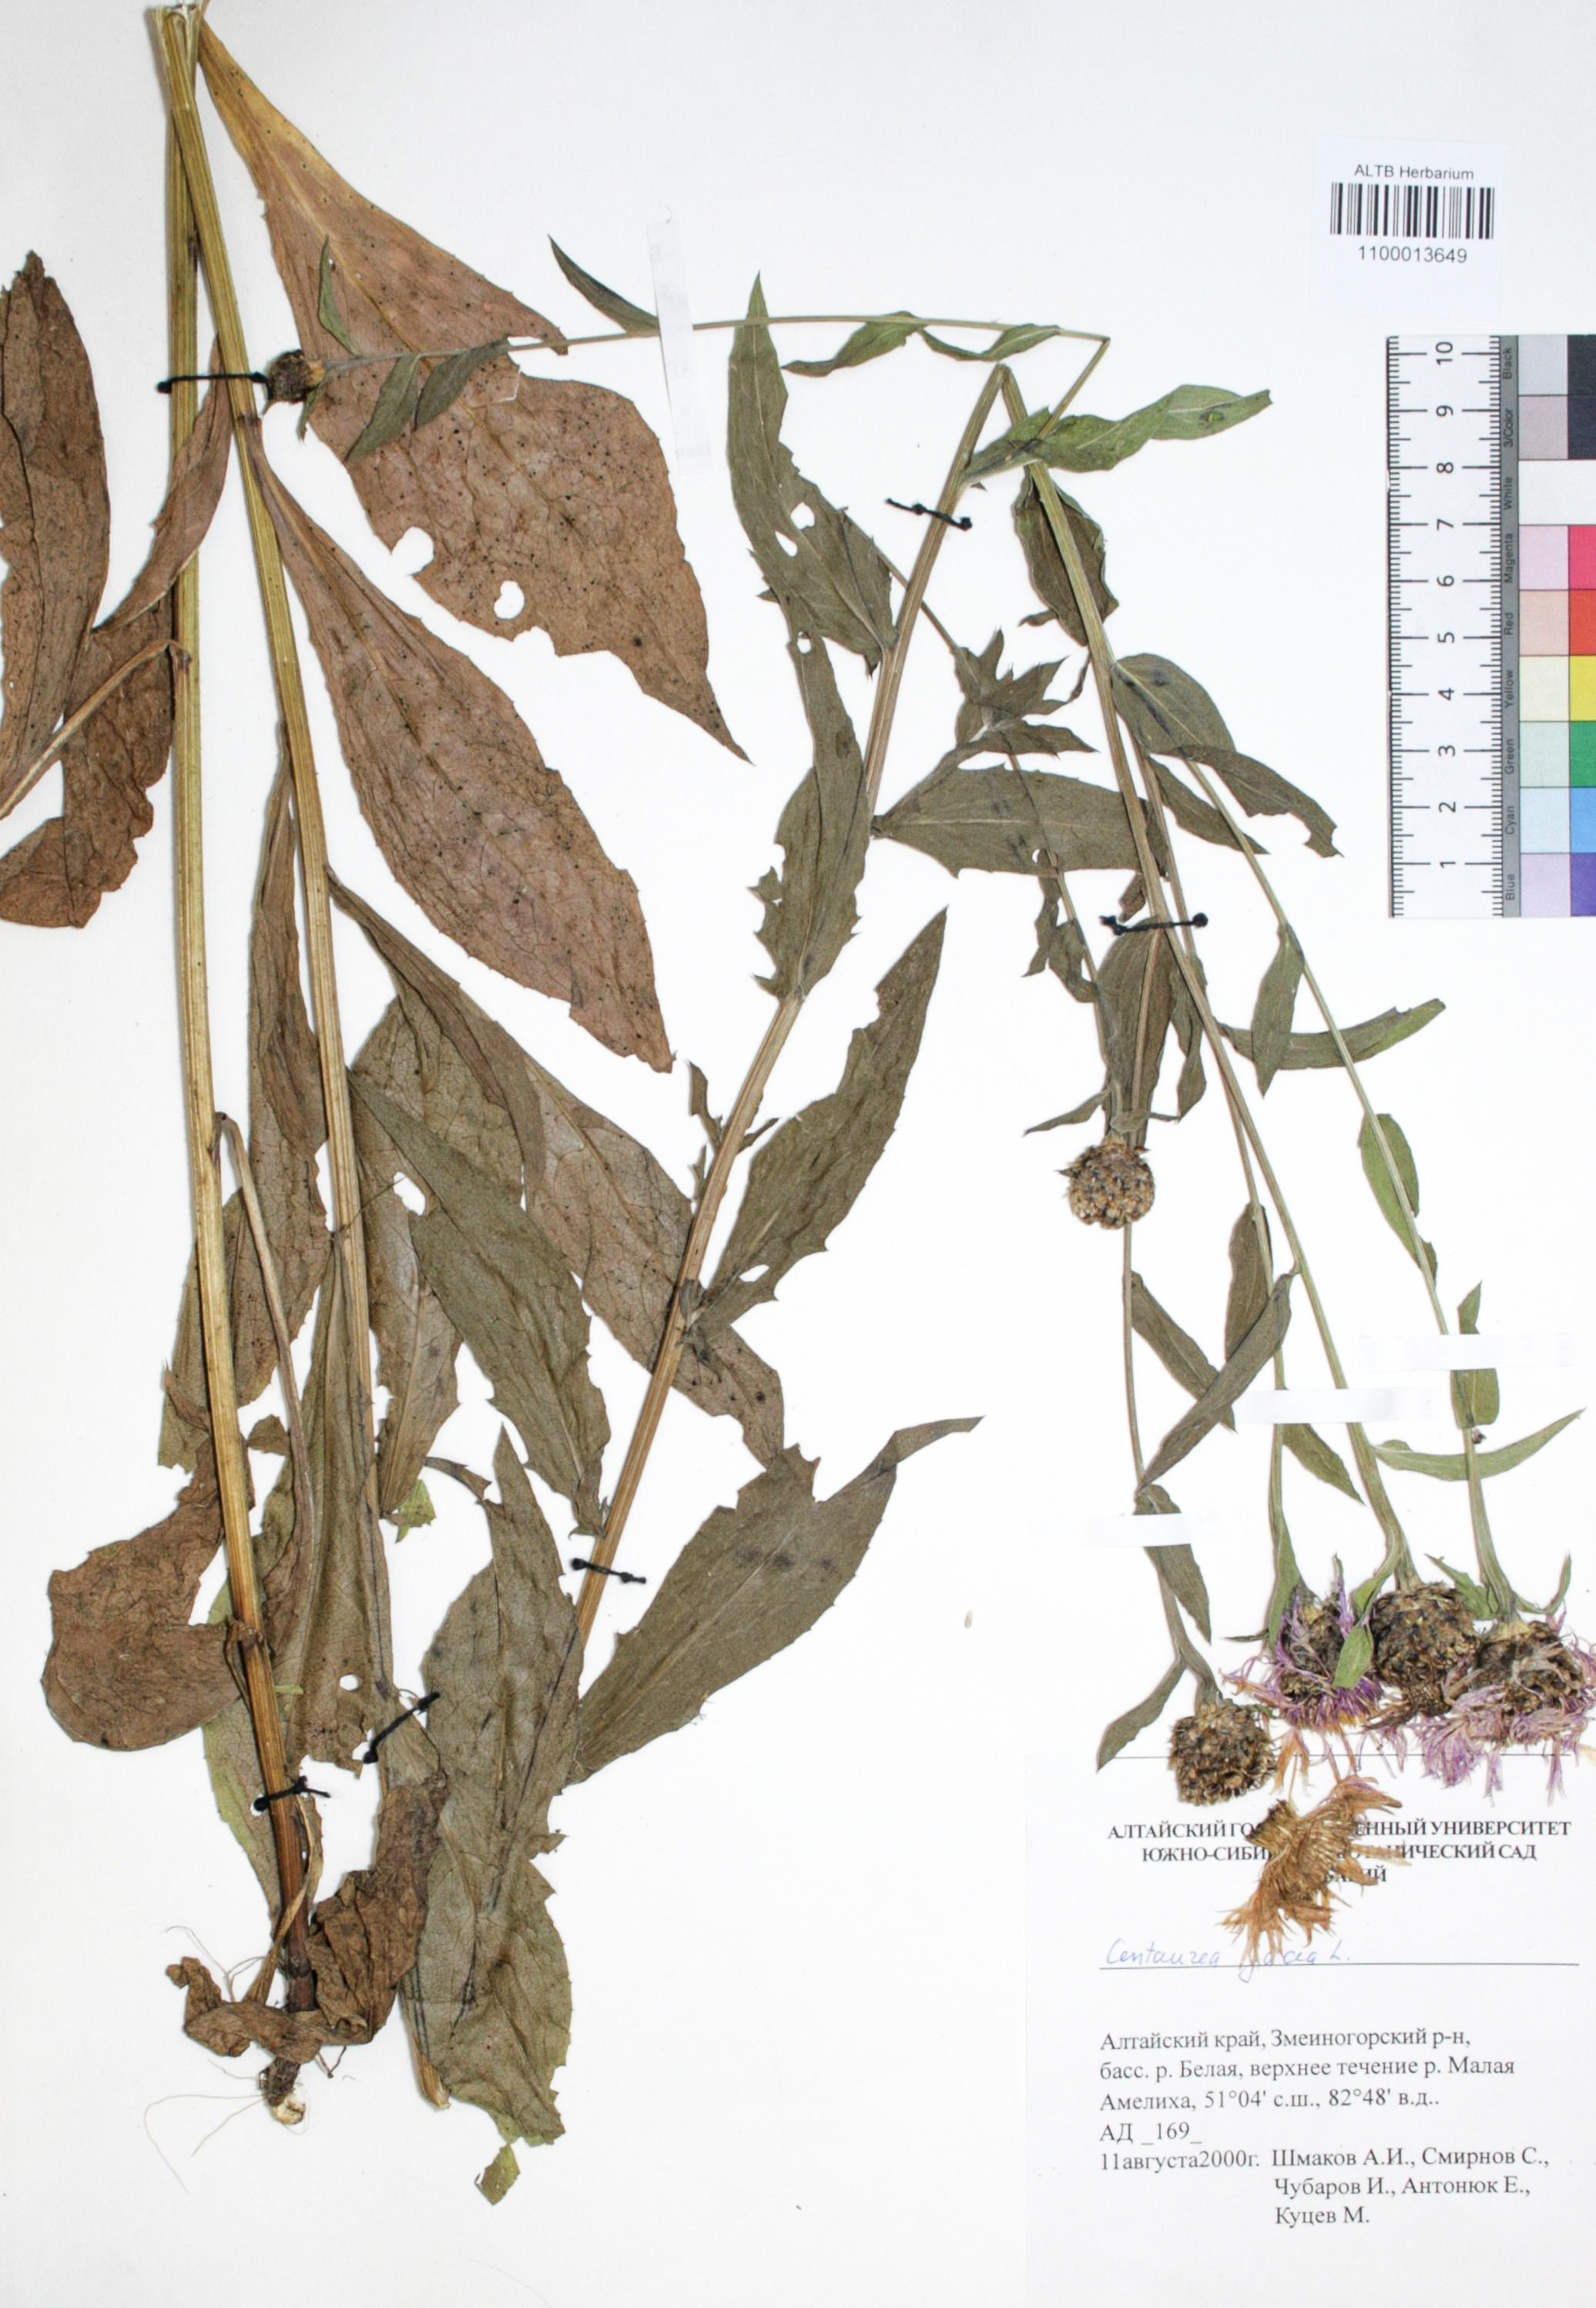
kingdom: Plantae
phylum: Tracheophyta
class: Magnoliopsida
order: Asterales
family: Asteraceae
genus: Centaurea
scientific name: Centaurea jacea
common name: Brown knapweed
